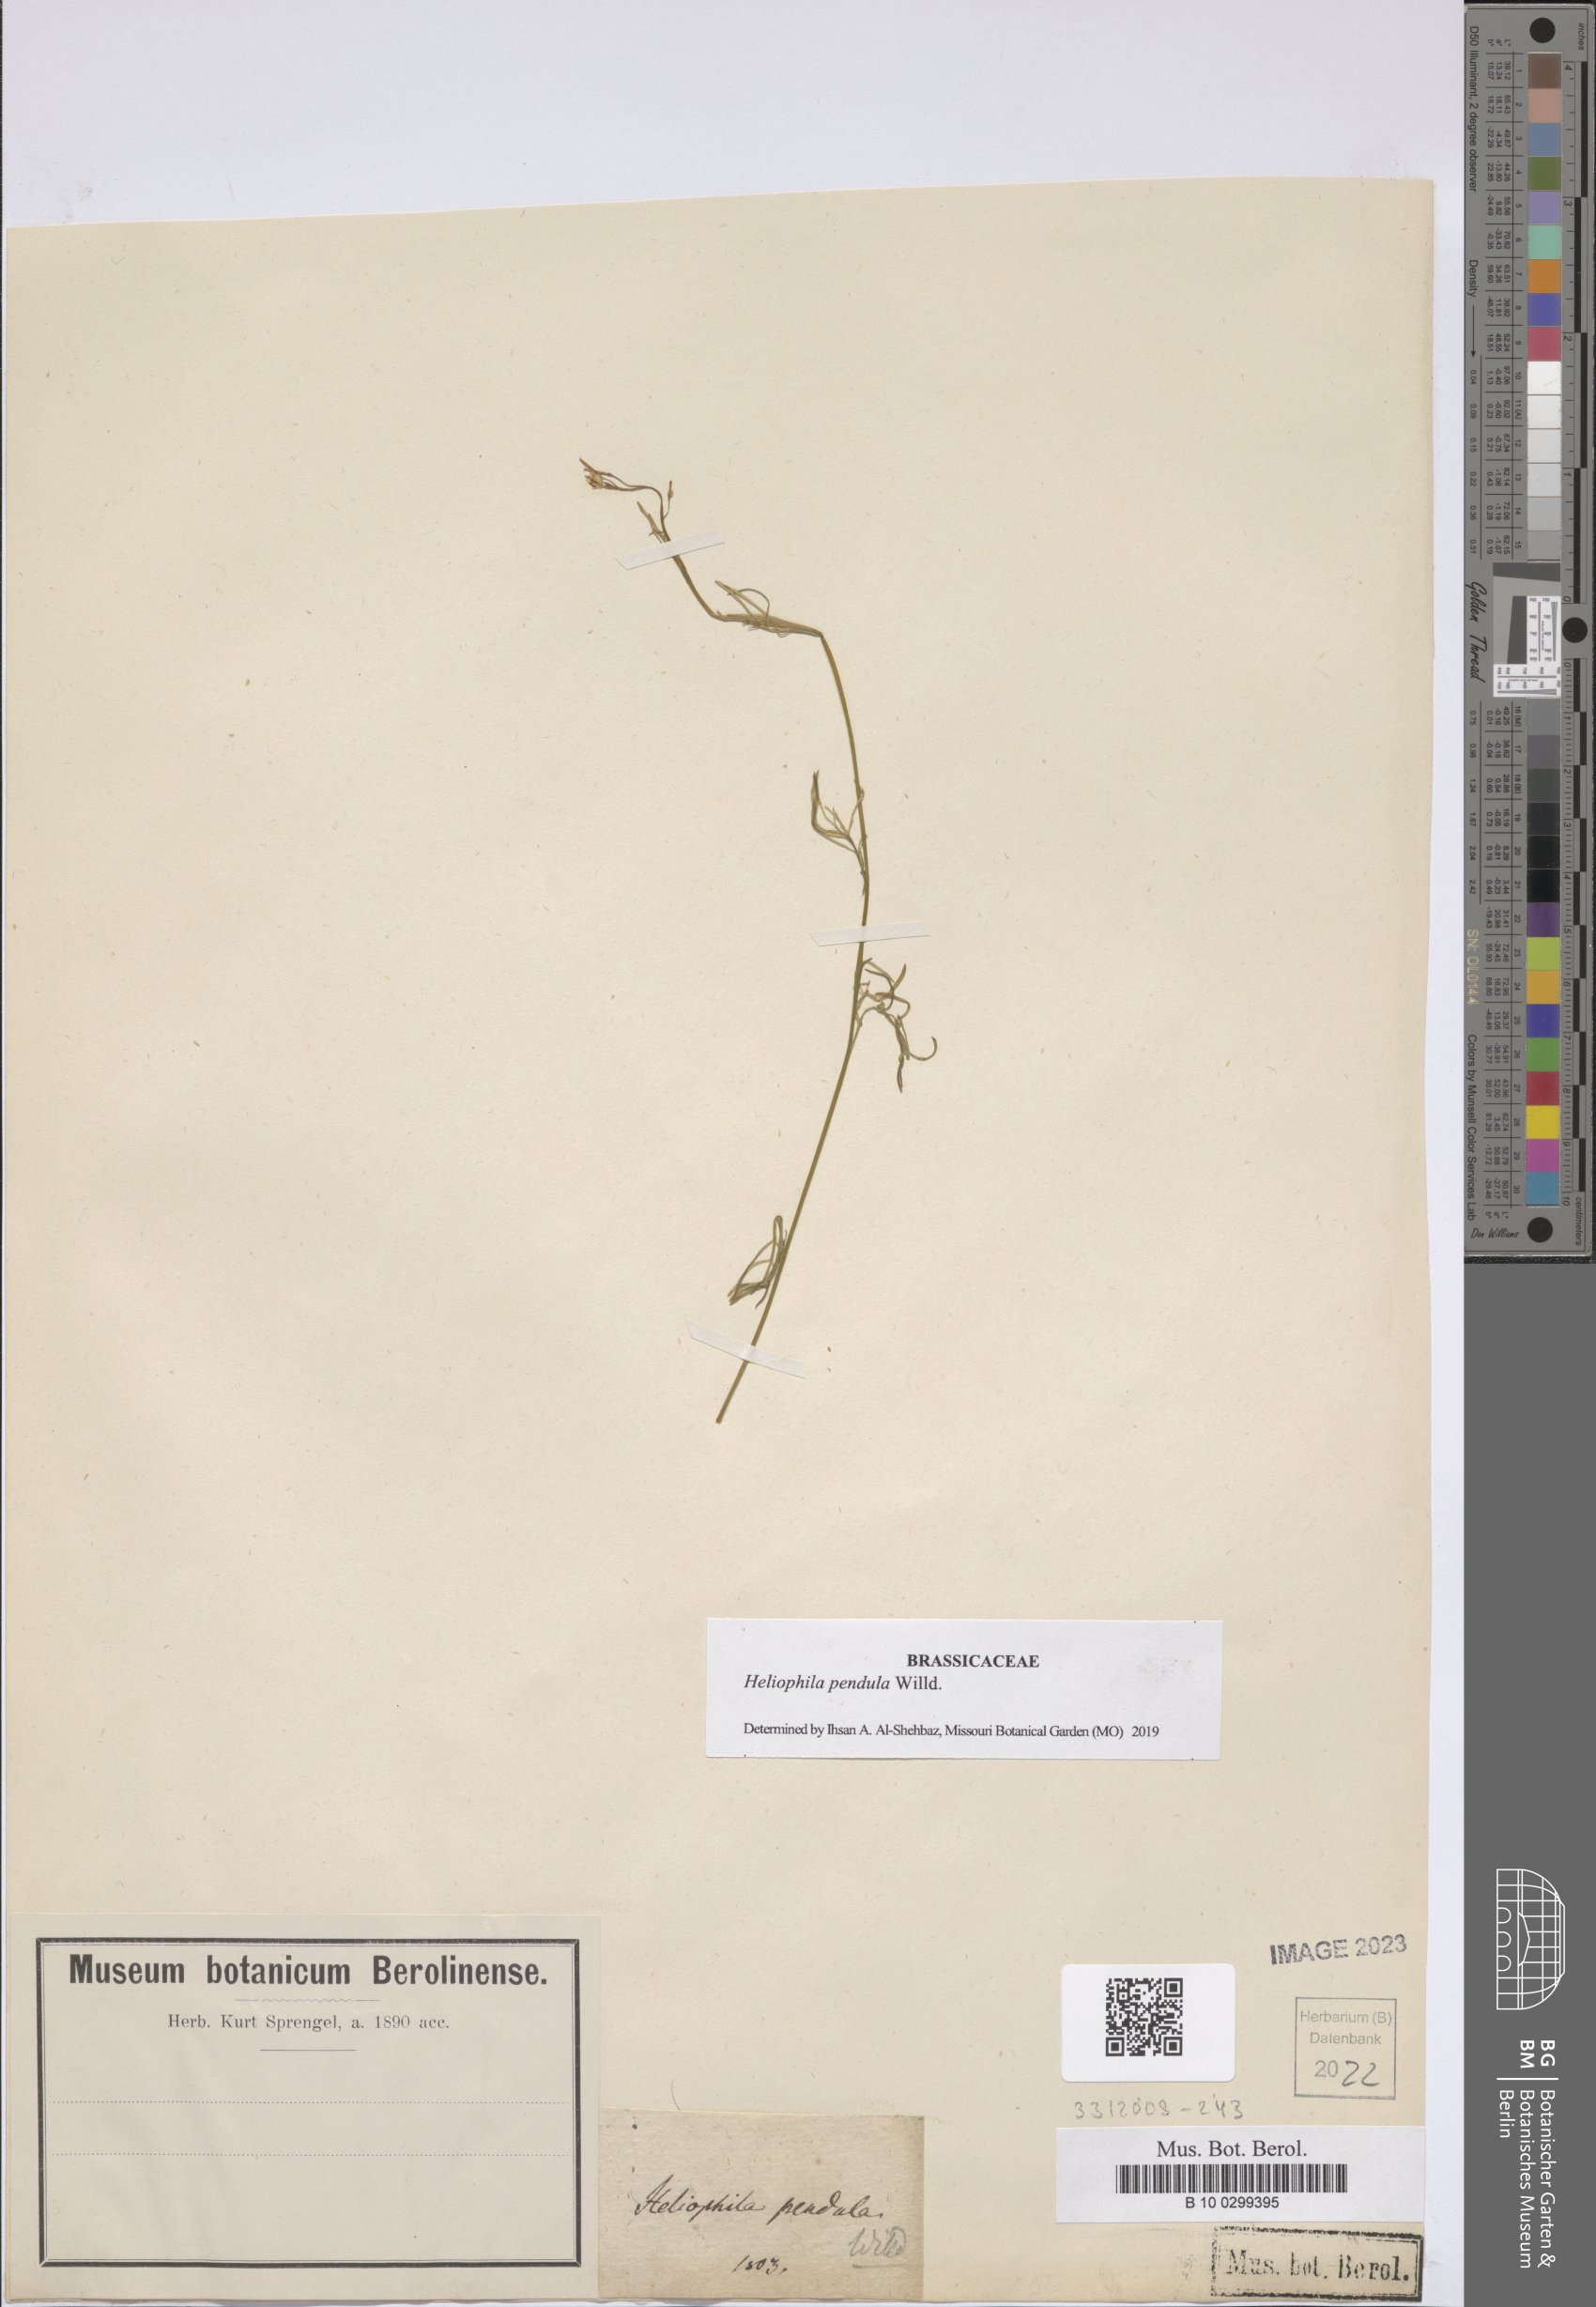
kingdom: Plantae
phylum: Tracheophyta
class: Magnoliopsida
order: Brassicales
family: Brassicaceae
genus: Heliophila
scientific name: Heliophila pendula
